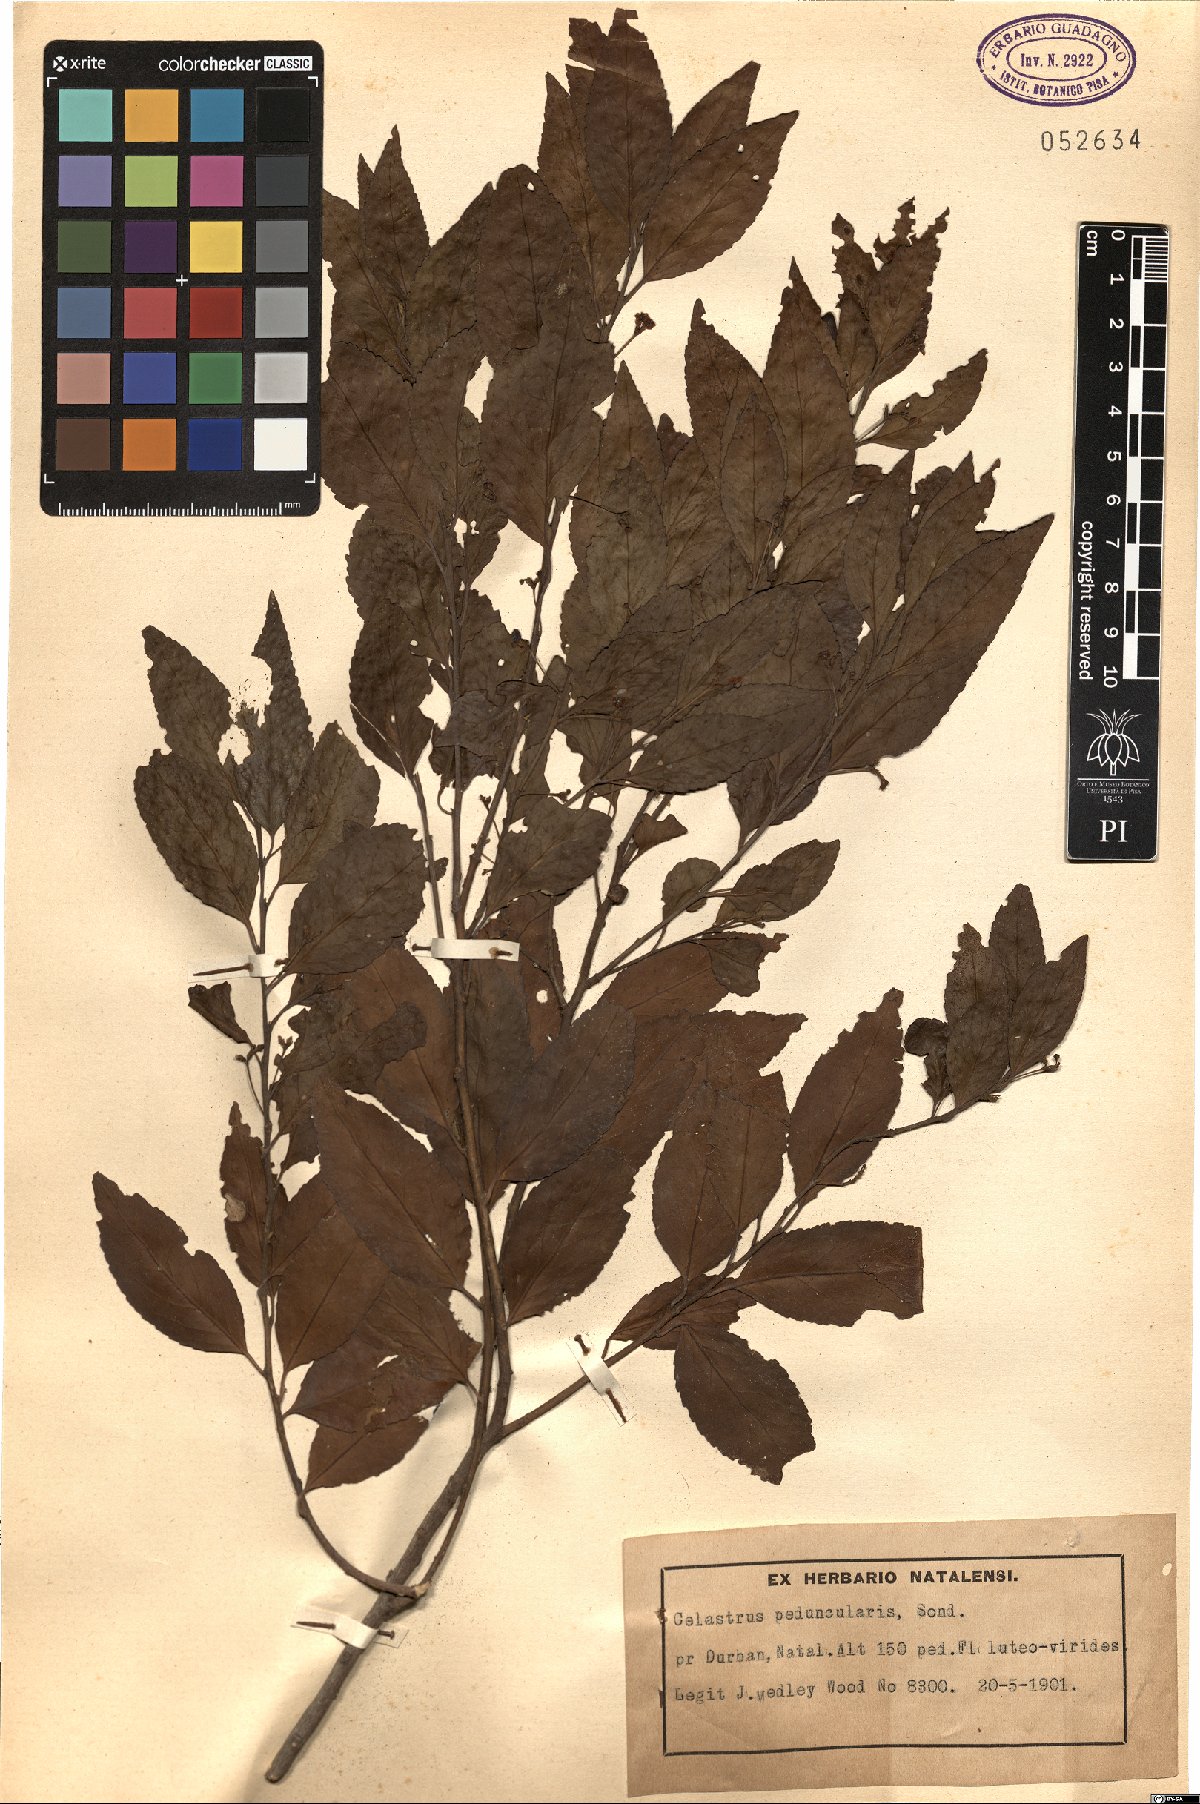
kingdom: Plantae
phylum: Tracheophyta
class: Magnoliopsida
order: Celastrales
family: Celastraceae
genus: Gymnosporia
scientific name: Gymnosporia peduncularis
